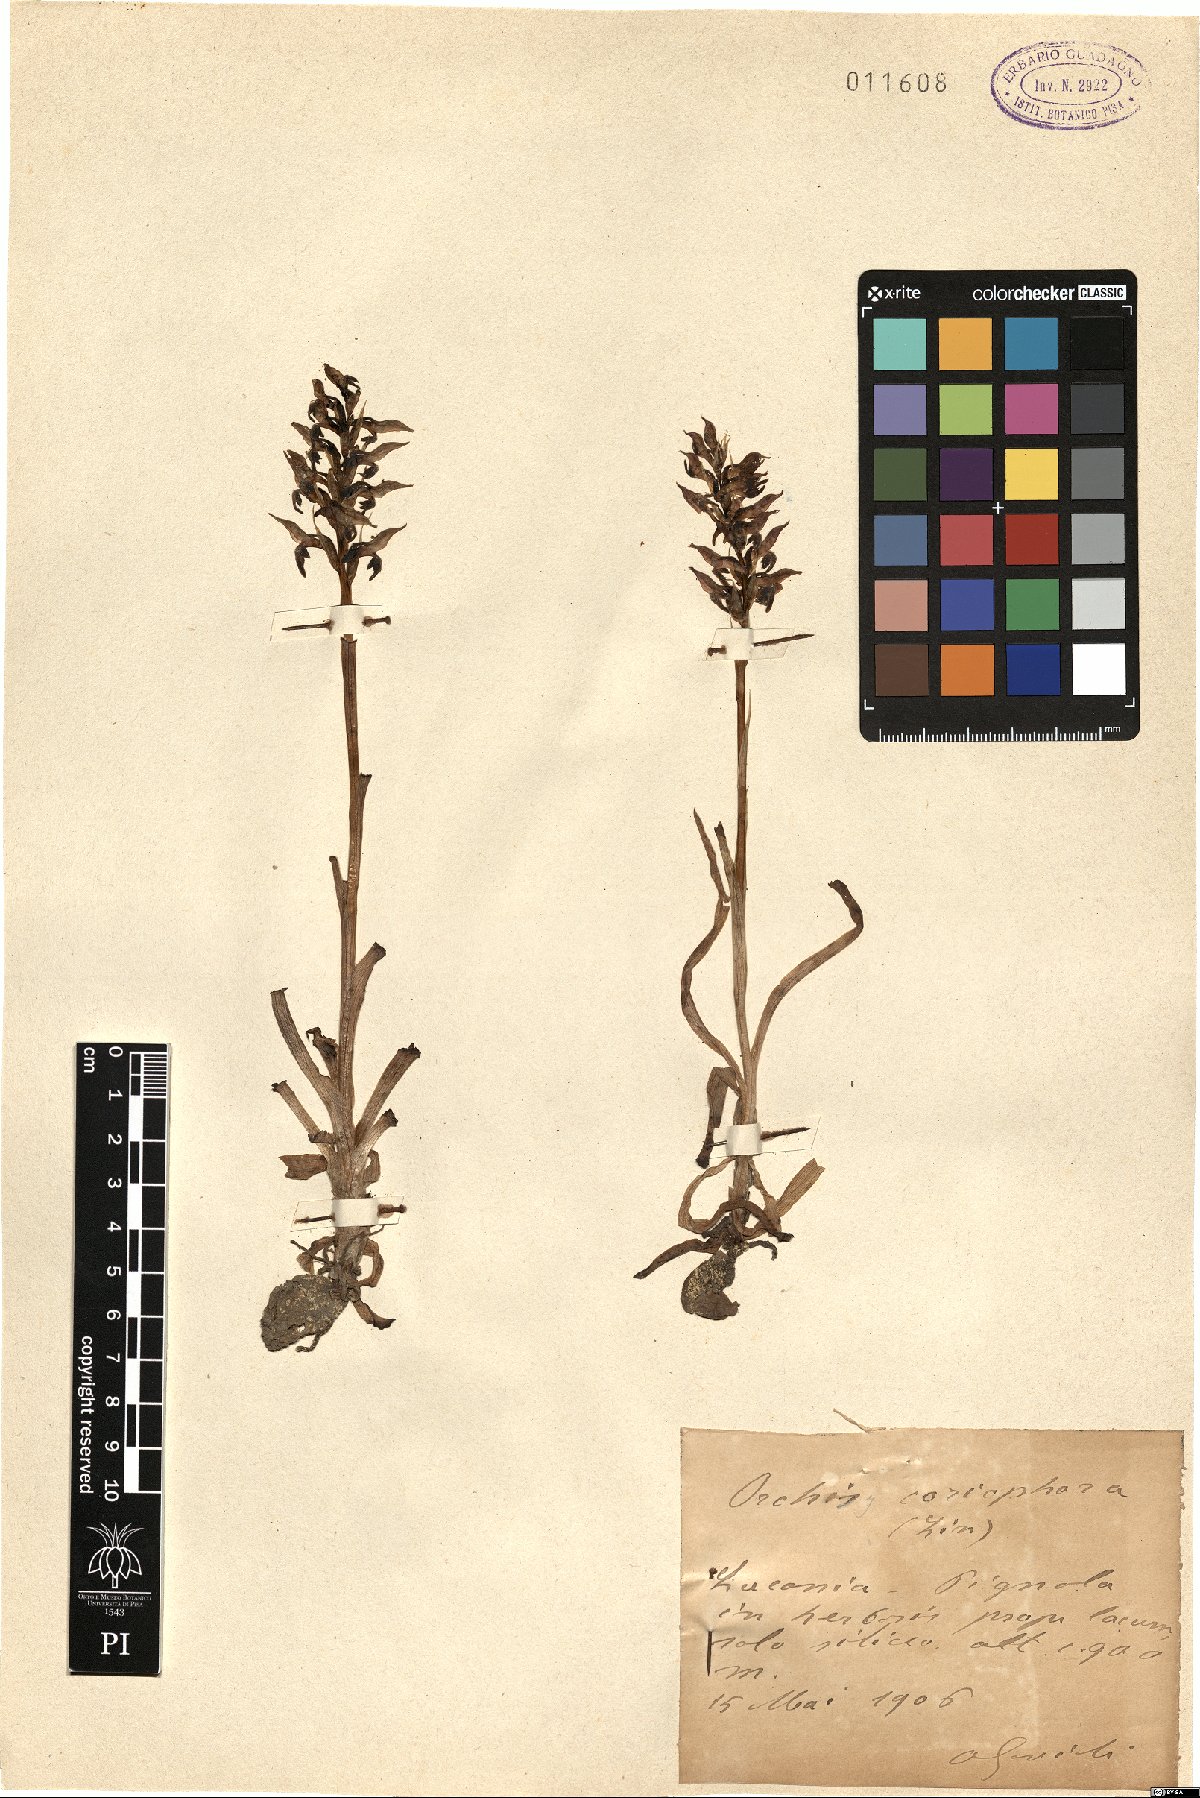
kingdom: Plantae
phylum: Tracheophyta
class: Liliopsida
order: Asparagales
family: Orchidaceae
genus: Anacamptis
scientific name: Anacamptis coriophora
